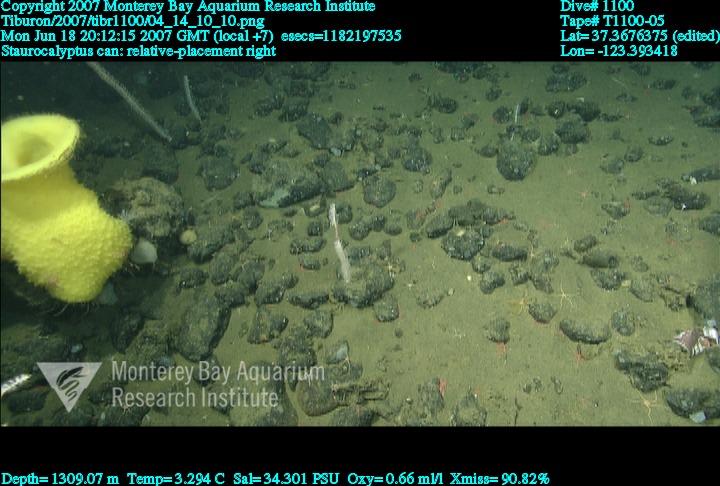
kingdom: Animalia
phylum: Porifera
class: Hexactinellida
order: Lyssacinosida
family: Rossellidae
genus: Staurocalyptus
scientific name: Staurocalyptus
